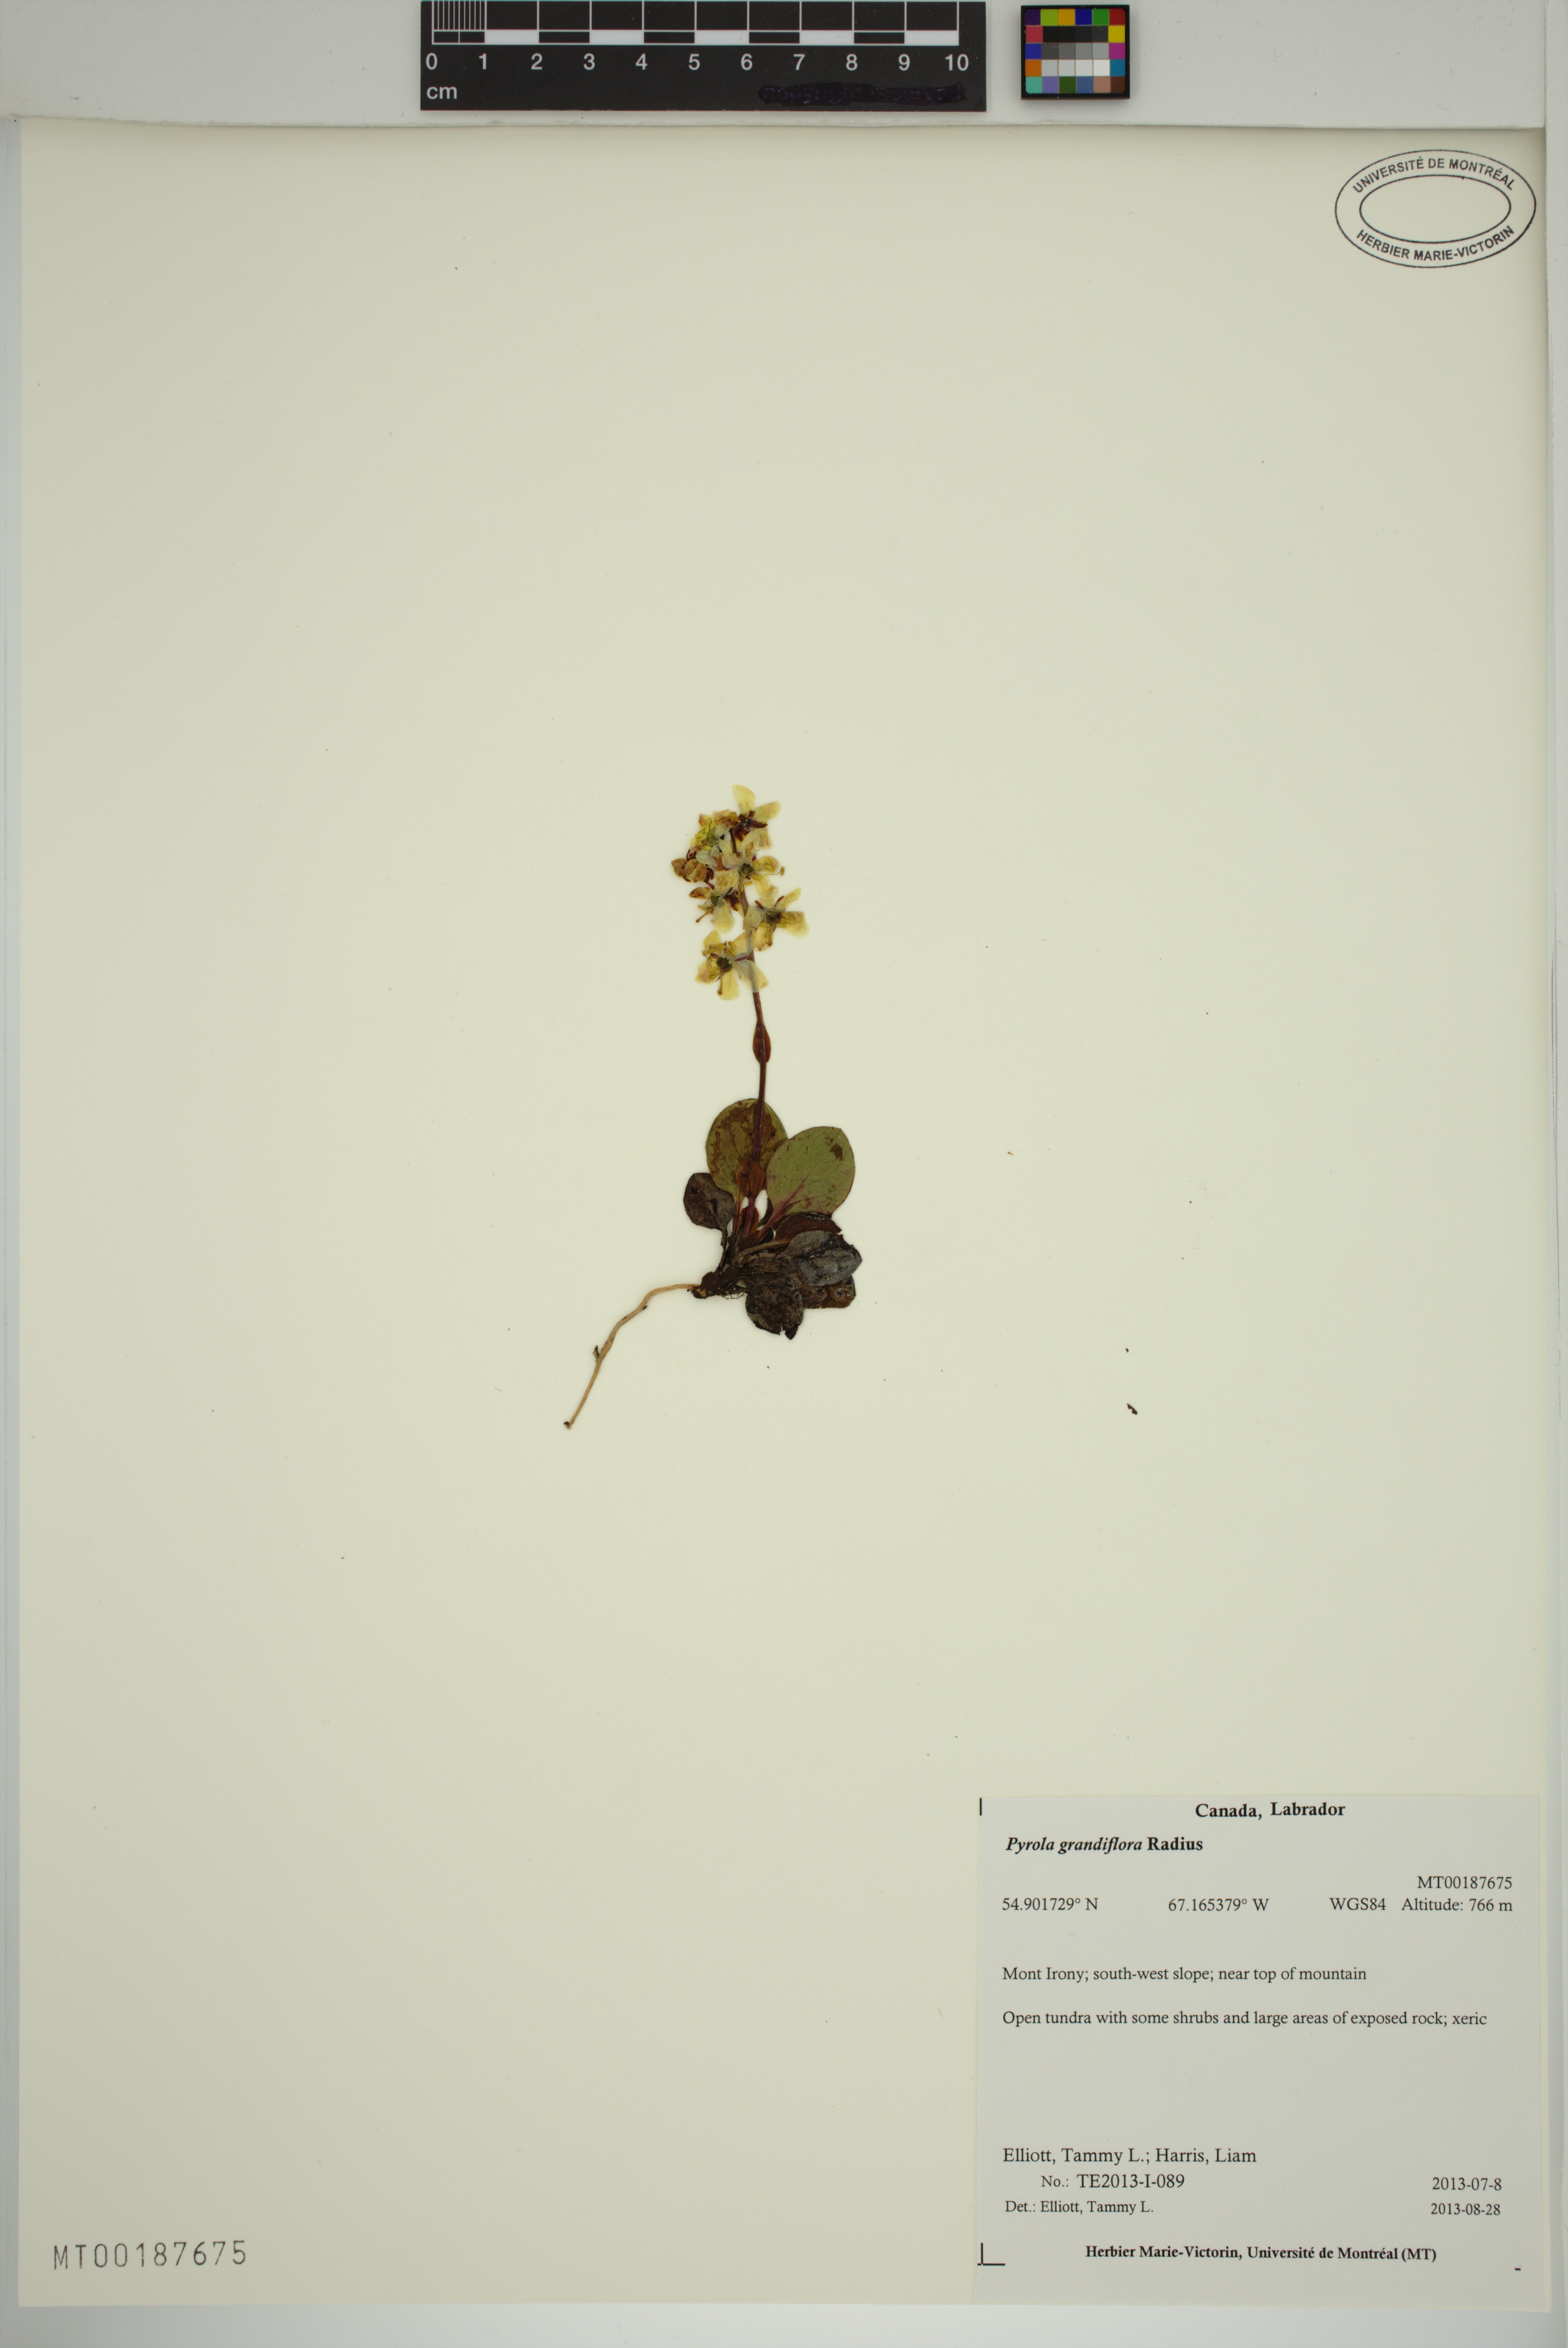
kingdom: Plantae
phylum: Tracheophyta
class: Magnoliopsida
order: Ericales
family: Ericaceae
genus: Pyrola
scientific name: Pyrola grandiflora
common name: Arctic pyrola
